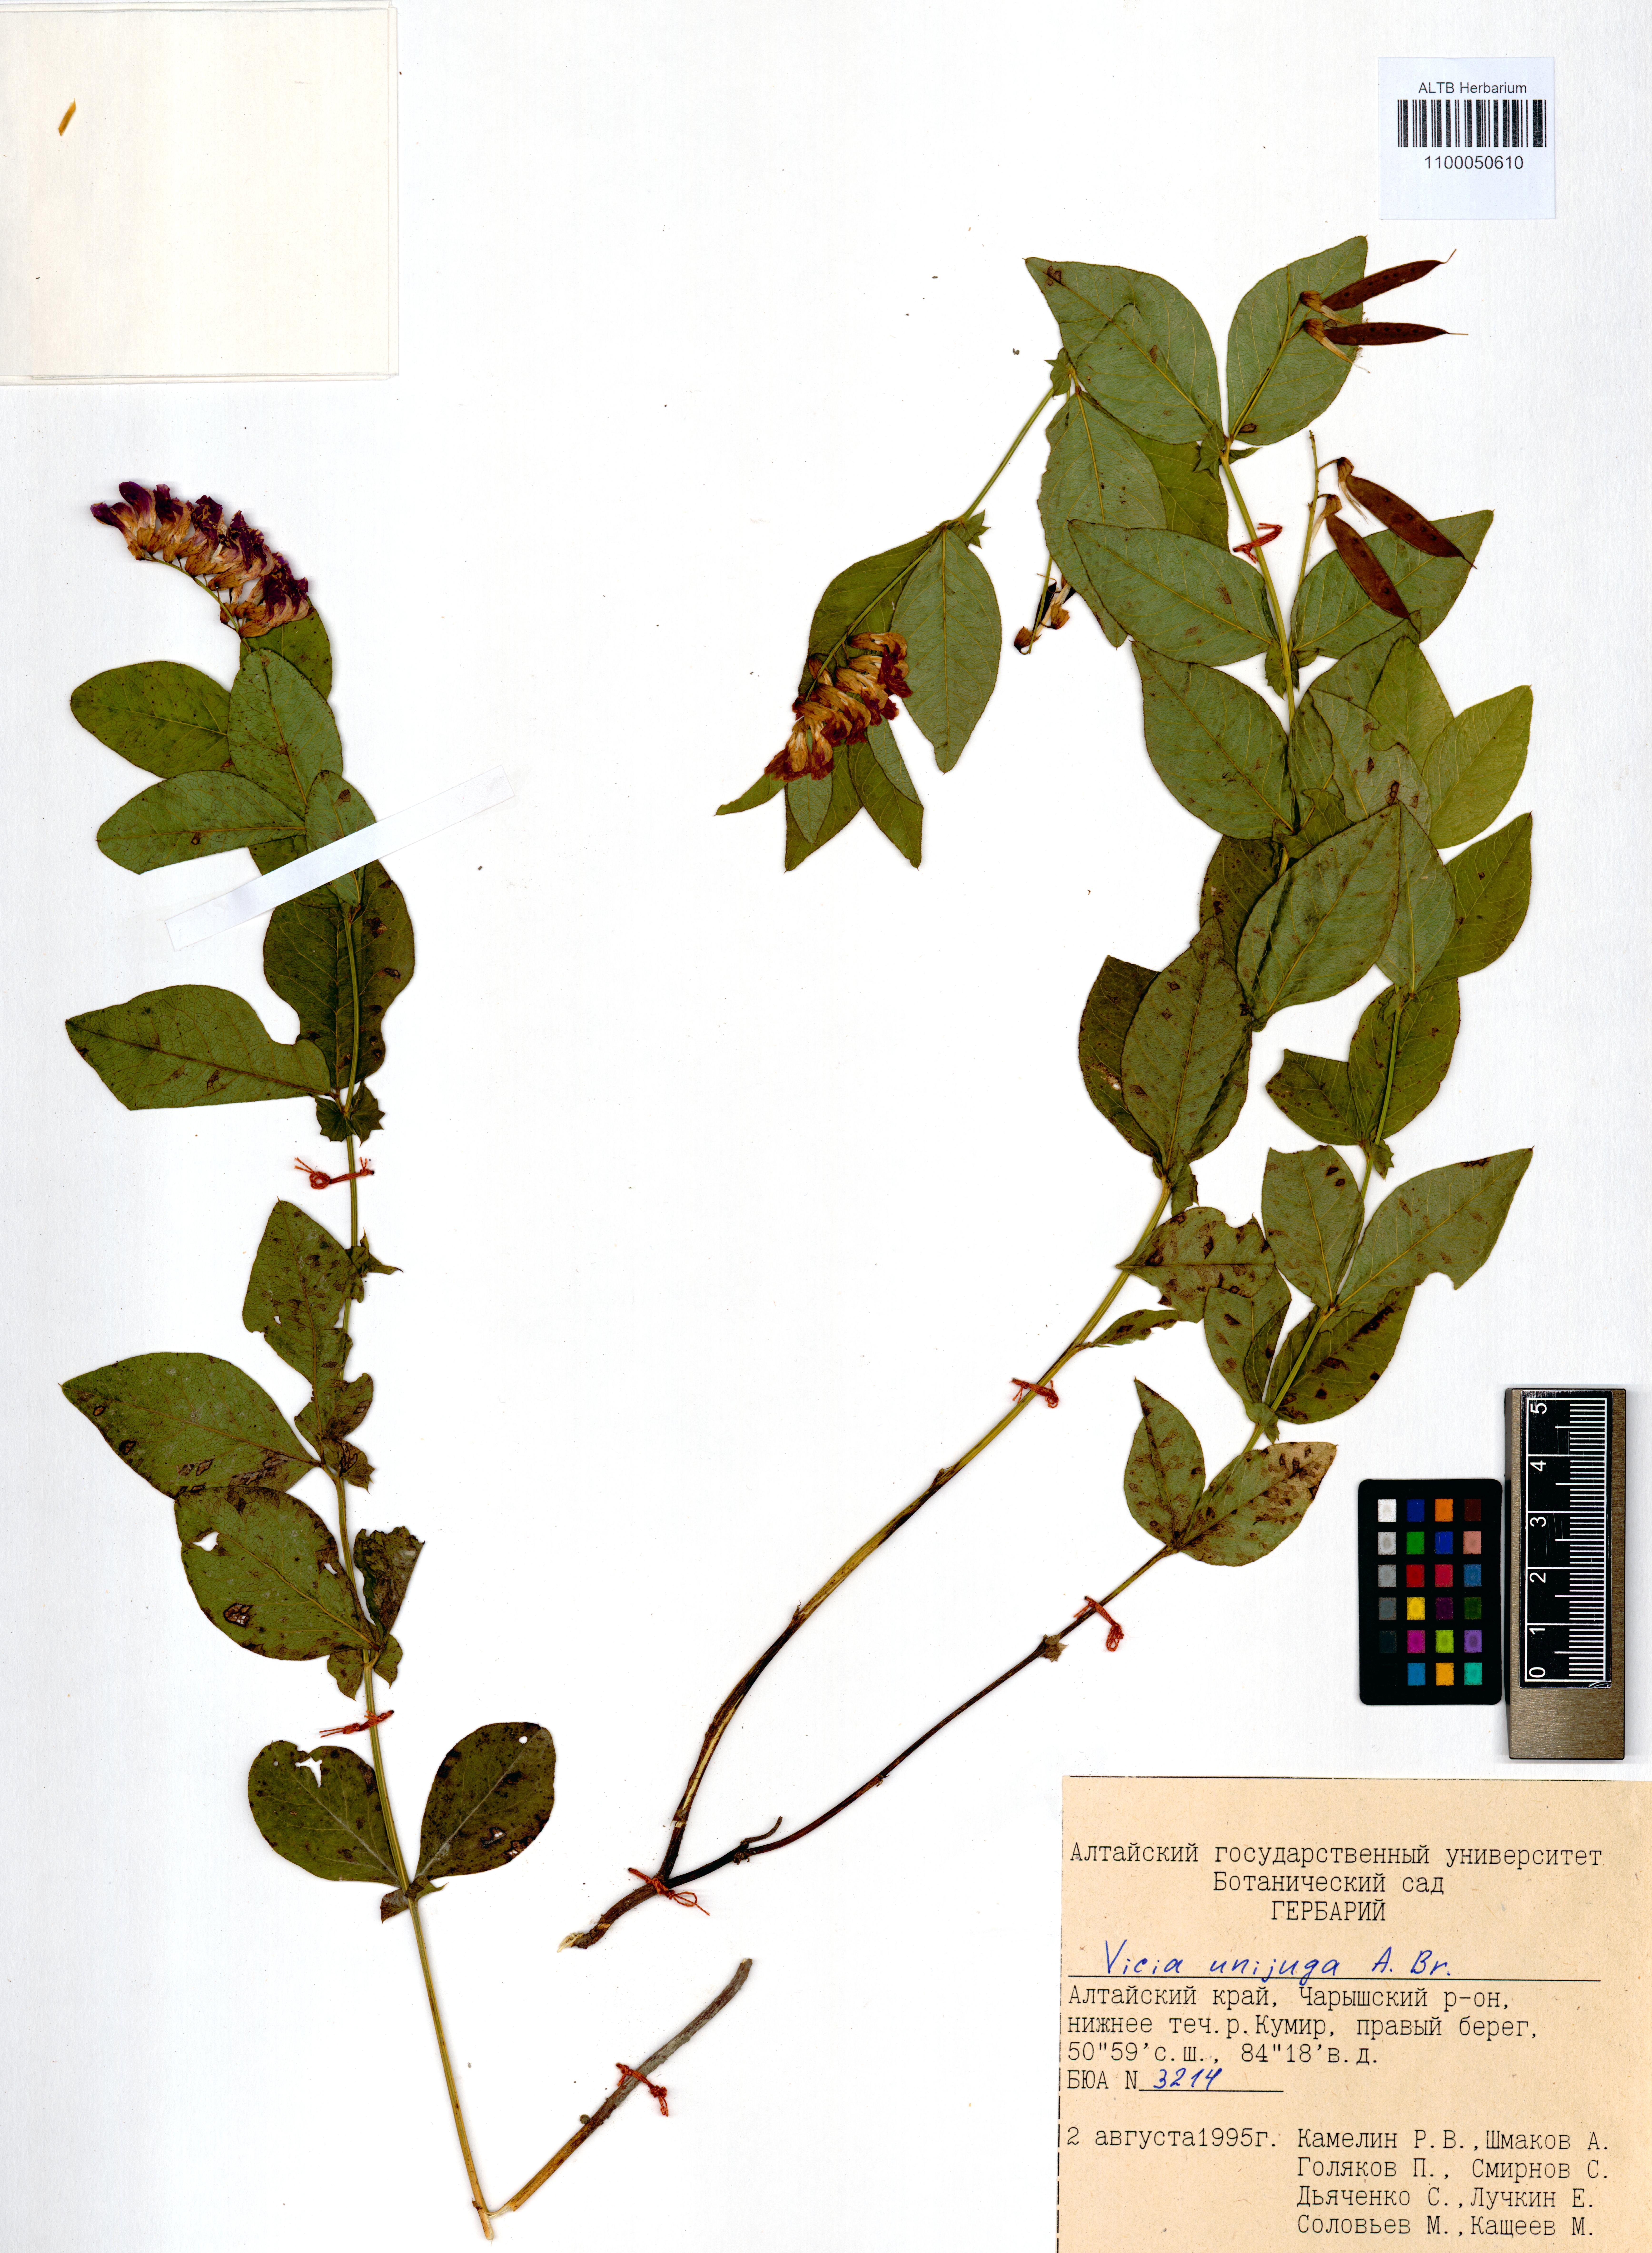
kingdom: Plantae
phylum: Tracheophyta
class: Magnoliopsida
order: Fabales
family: Fabaceae
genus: Vicia
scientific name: Vicia unijuga
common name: Two-leaf vetch
